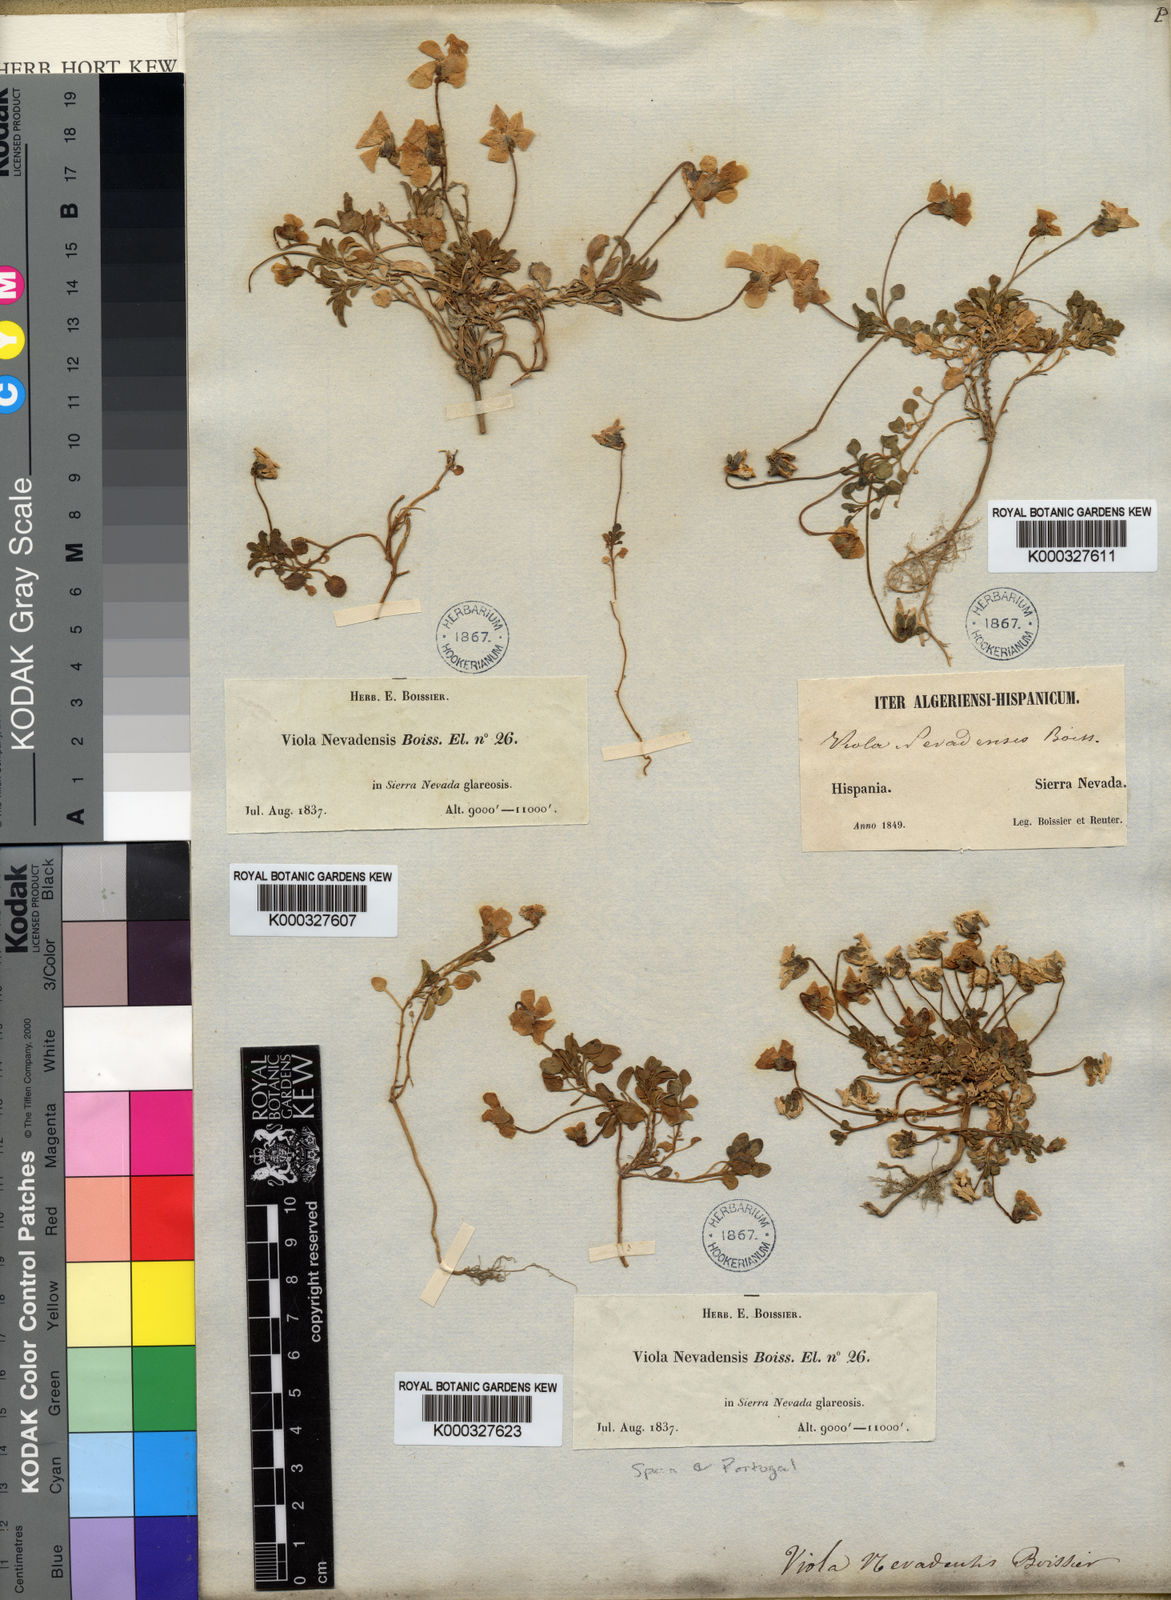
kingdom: Plantae
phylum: Tracheophyta
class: Magnoliopsida
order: Malpighiales
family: Violaceae
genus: Viola
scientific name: Viola crassiuscula
